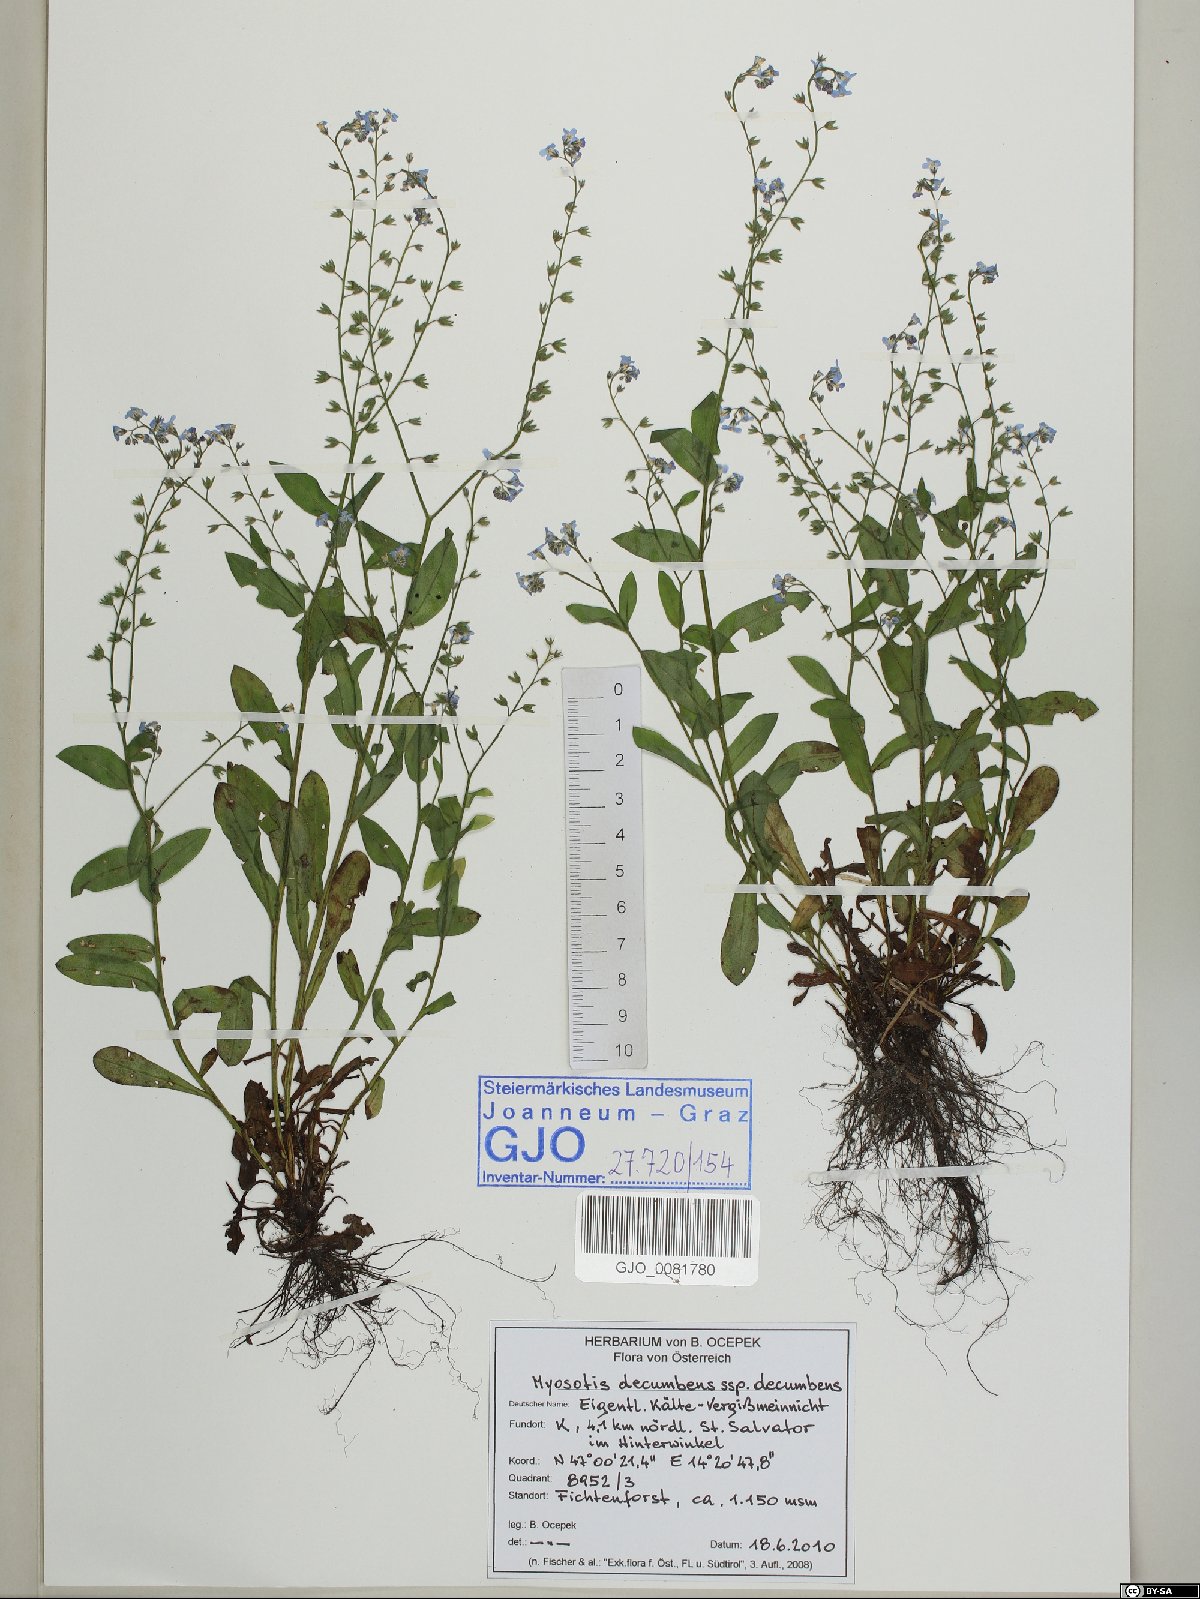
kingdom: Plantae
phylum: Tracheophyta
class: Magnoliopsida
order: Boraginales
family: Boraginaceae
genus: Myosotis
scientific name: Myosotis decumbens
